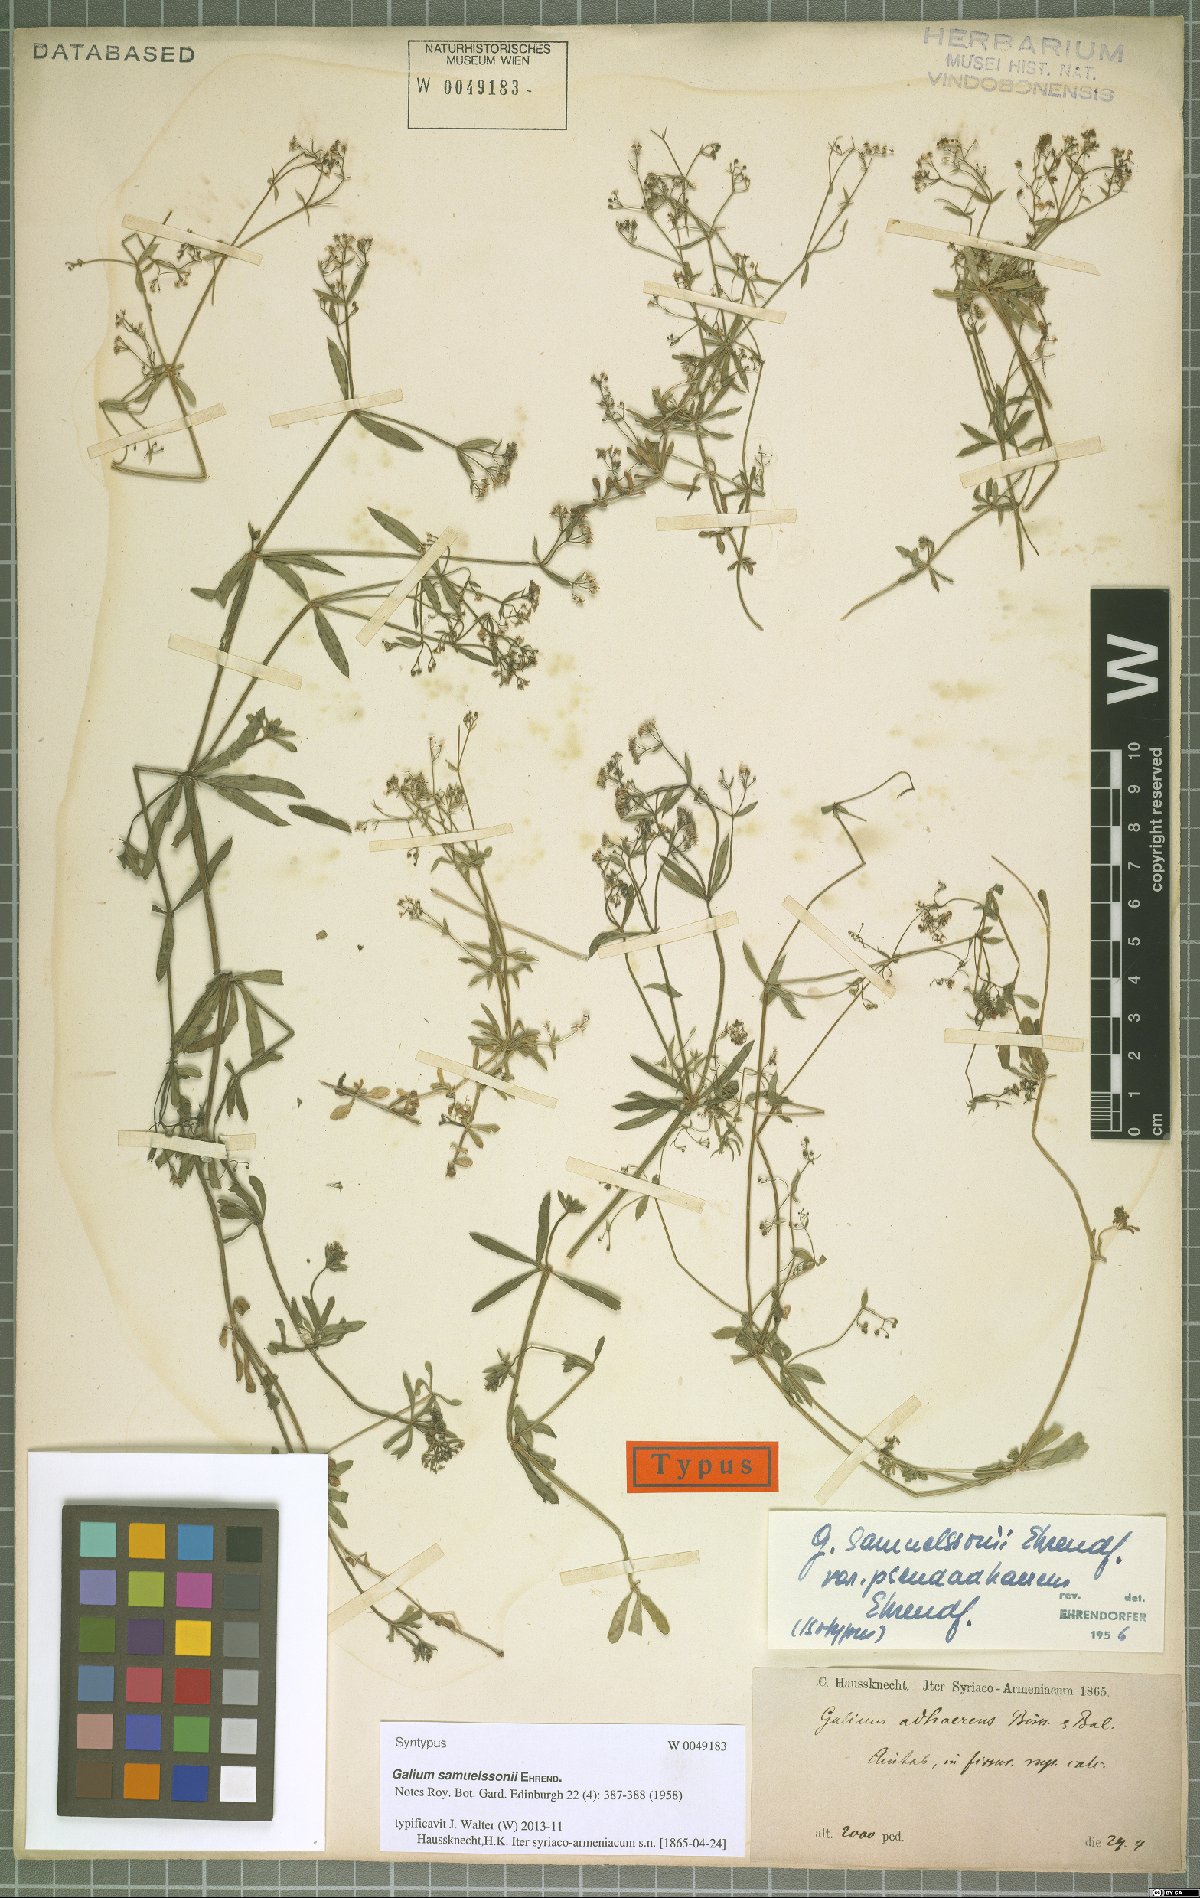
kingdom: Plantae
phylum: Tracheophyta
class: Magnoliopsida
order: Gentianales
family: Rubiaceae
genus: Galium
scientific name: Galium samuelssonii
